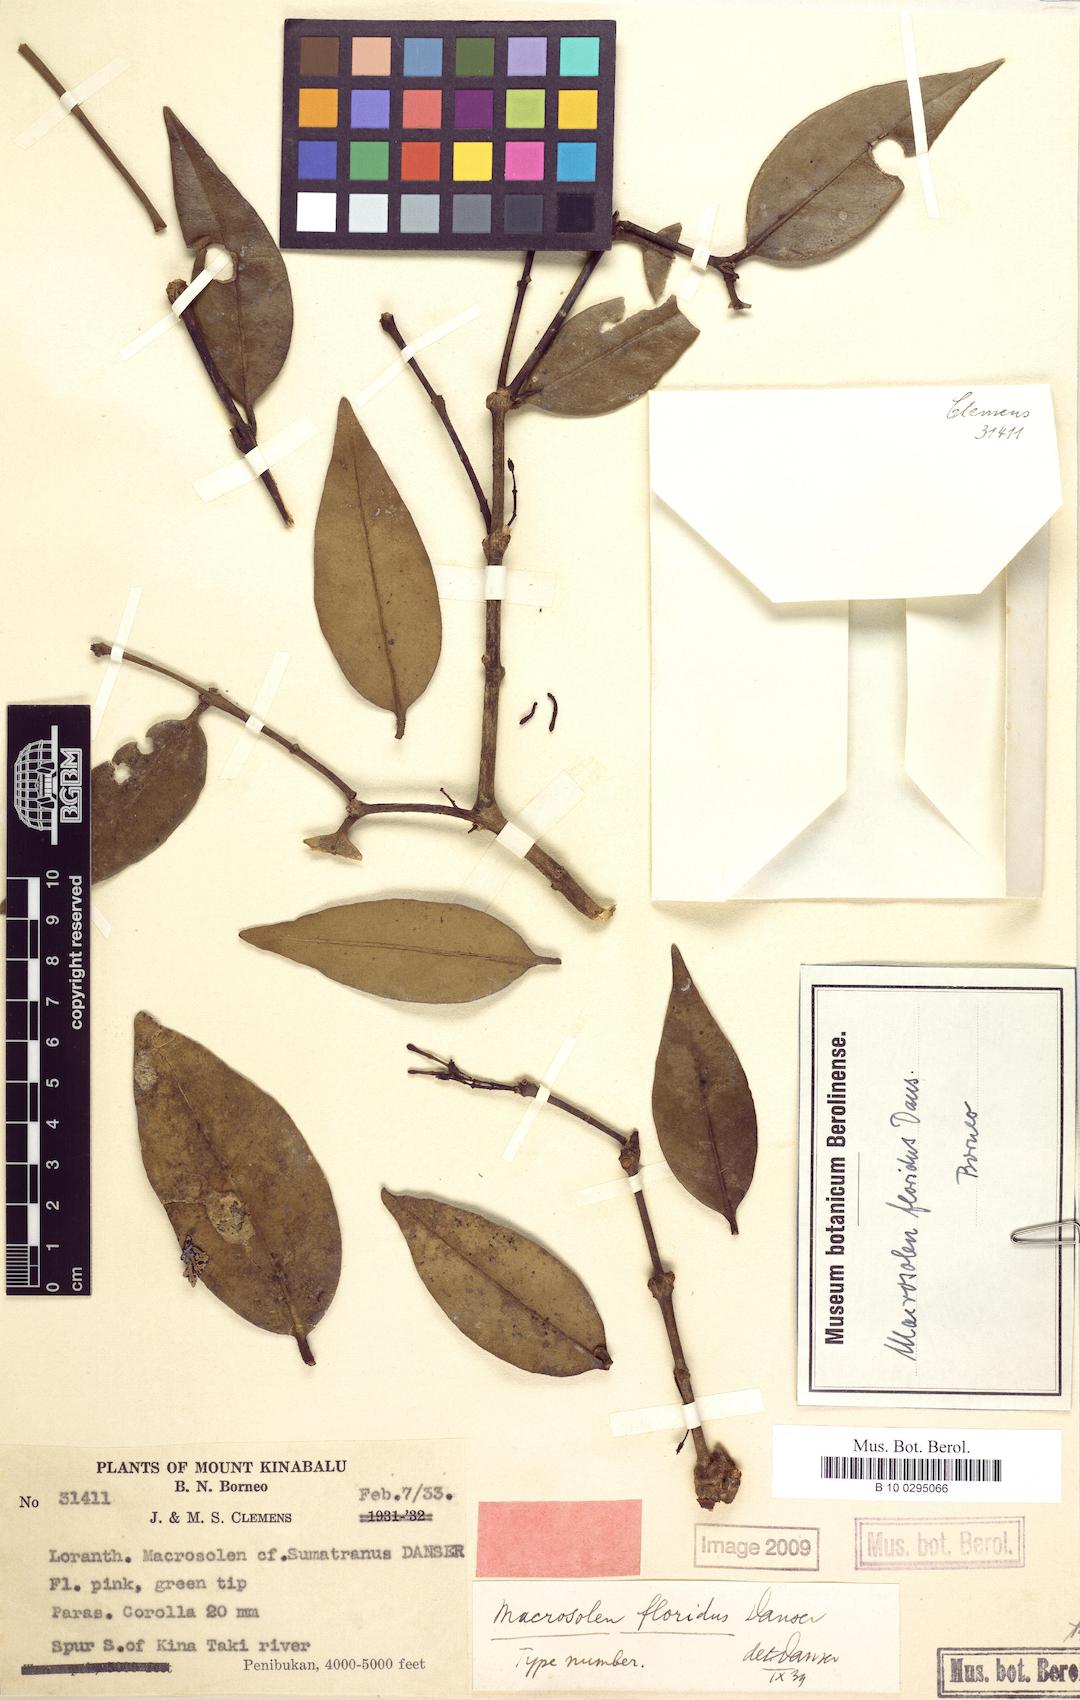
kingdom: Plantae
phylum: Tracheophyta
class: Magnoliopsida
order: Santalales
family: Loranthaceae
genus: Macrosolen
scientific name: Macrosolen melintangensis
